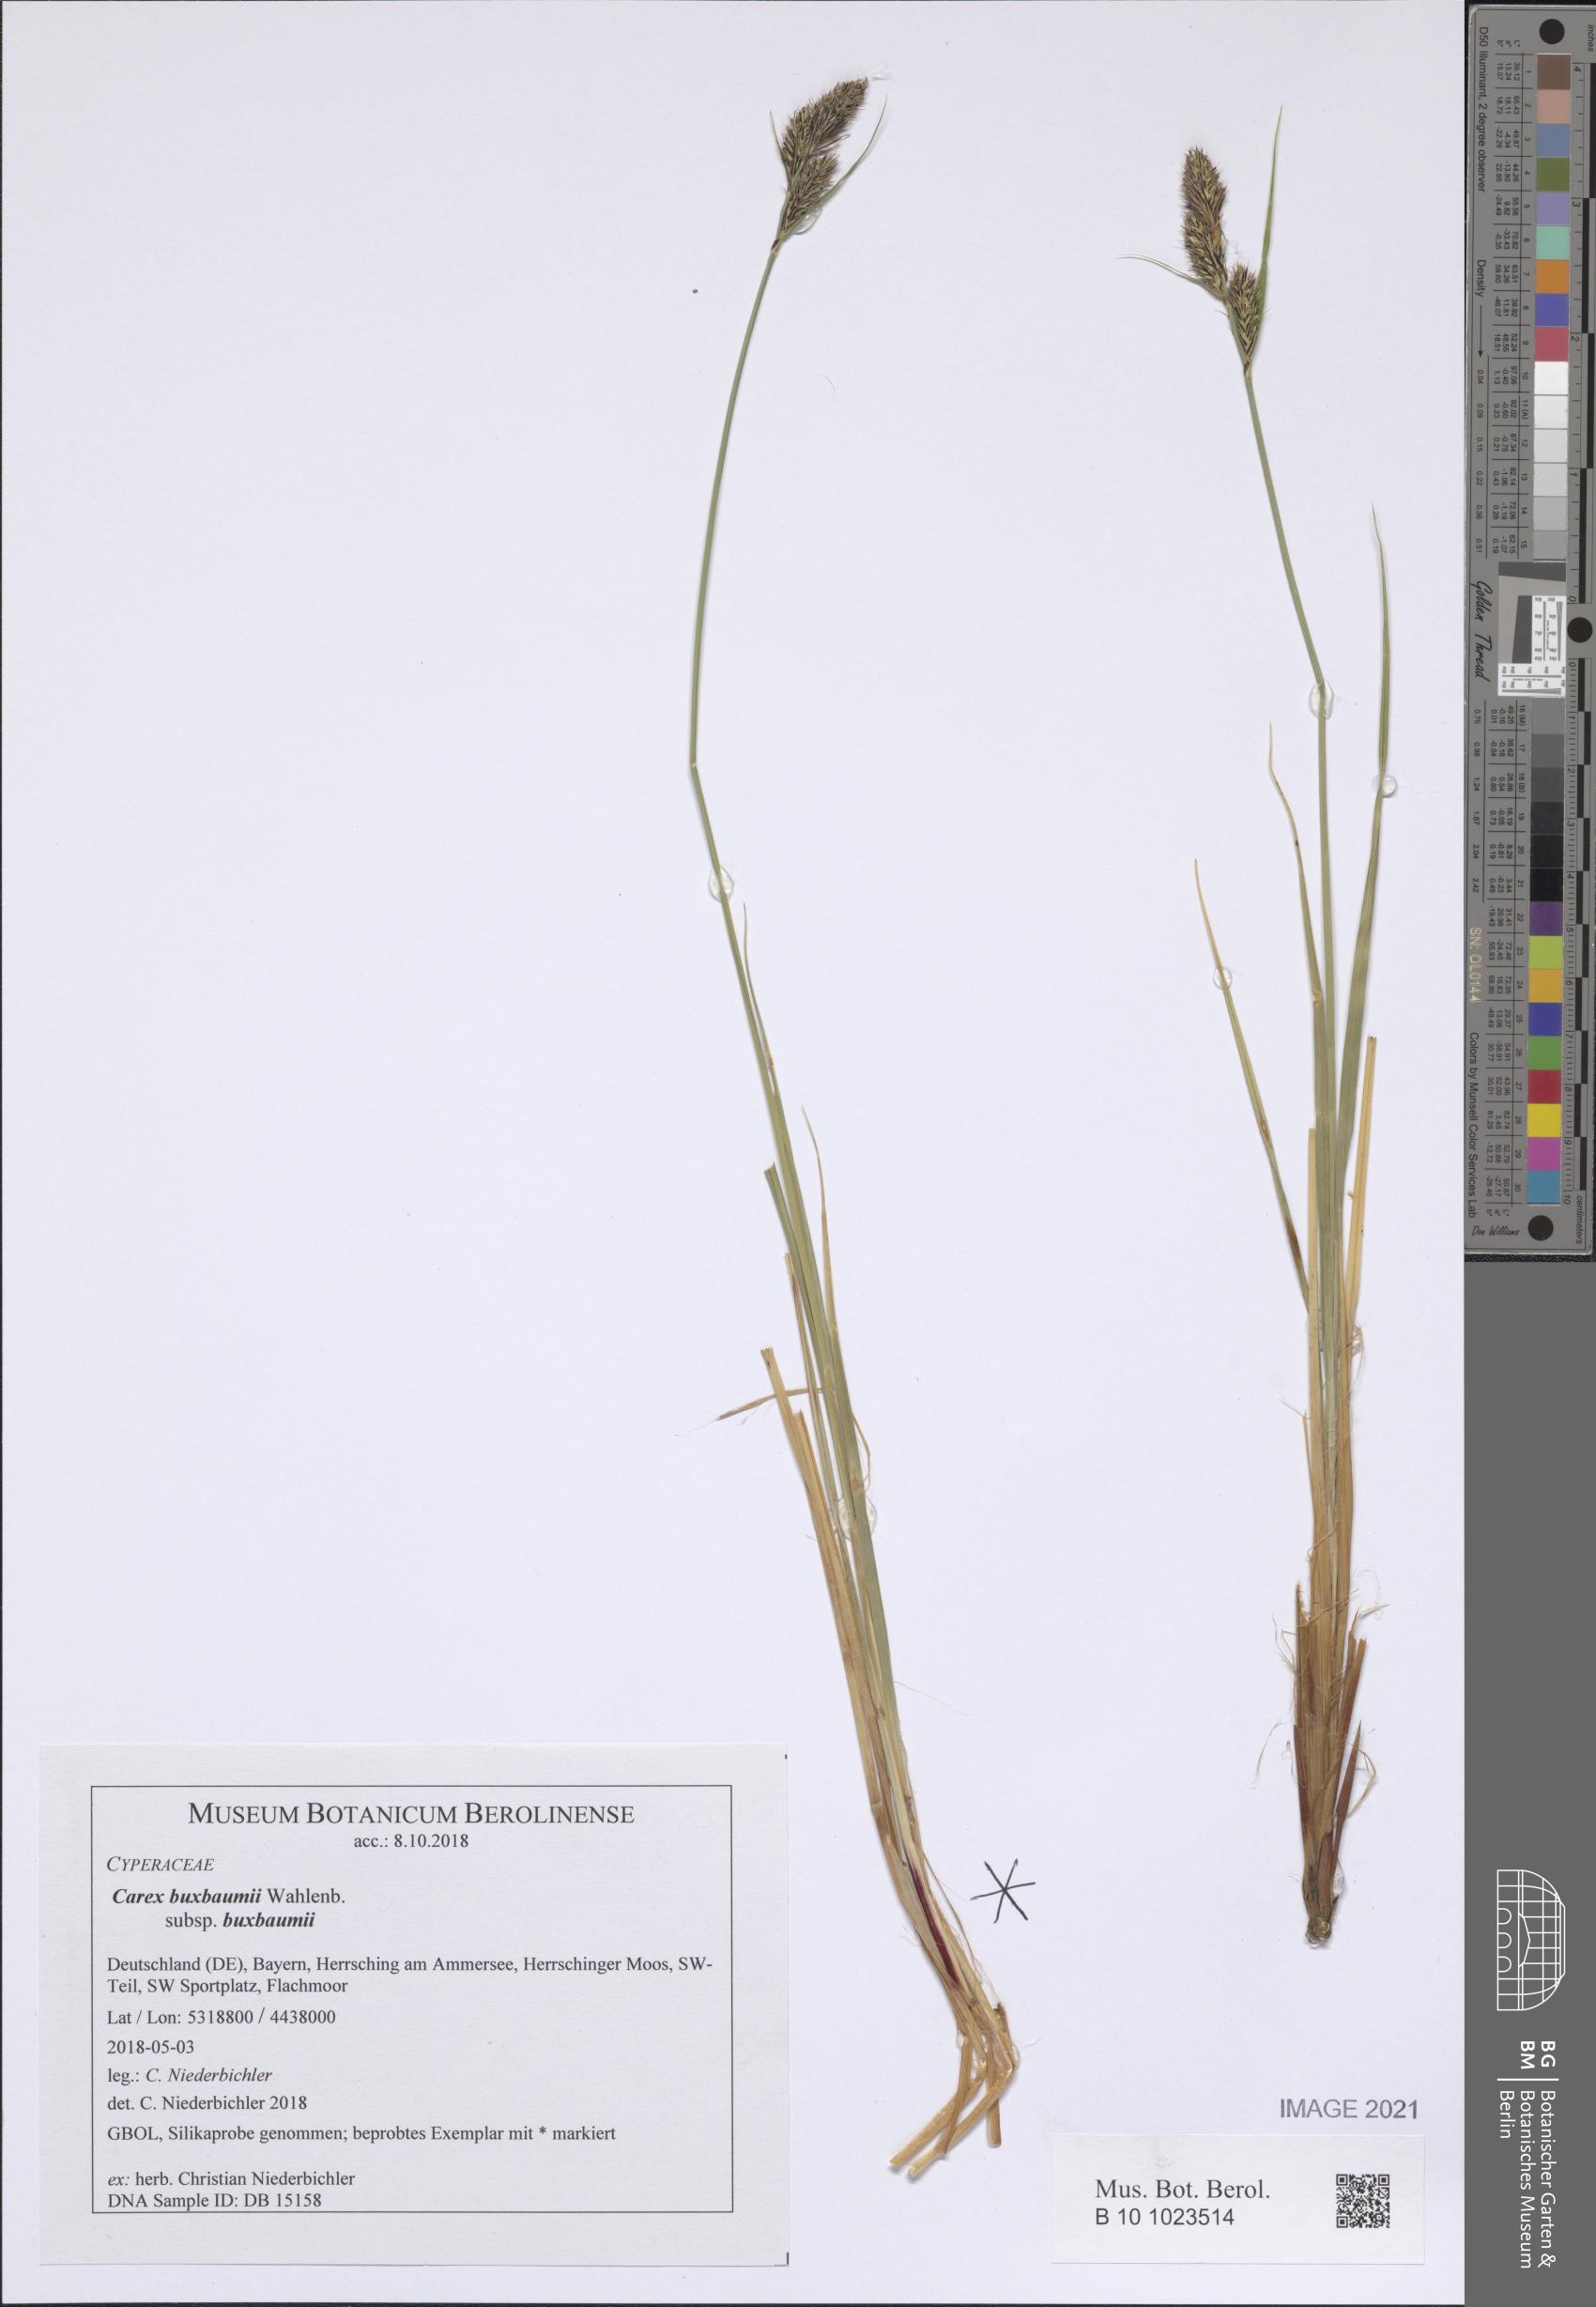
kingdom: Plantae
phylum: Tracheophyta
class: Liliopsida
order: Poales
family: Cyperaceae
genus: Carex
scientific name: Carex buxbaumii
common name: Club sedge
